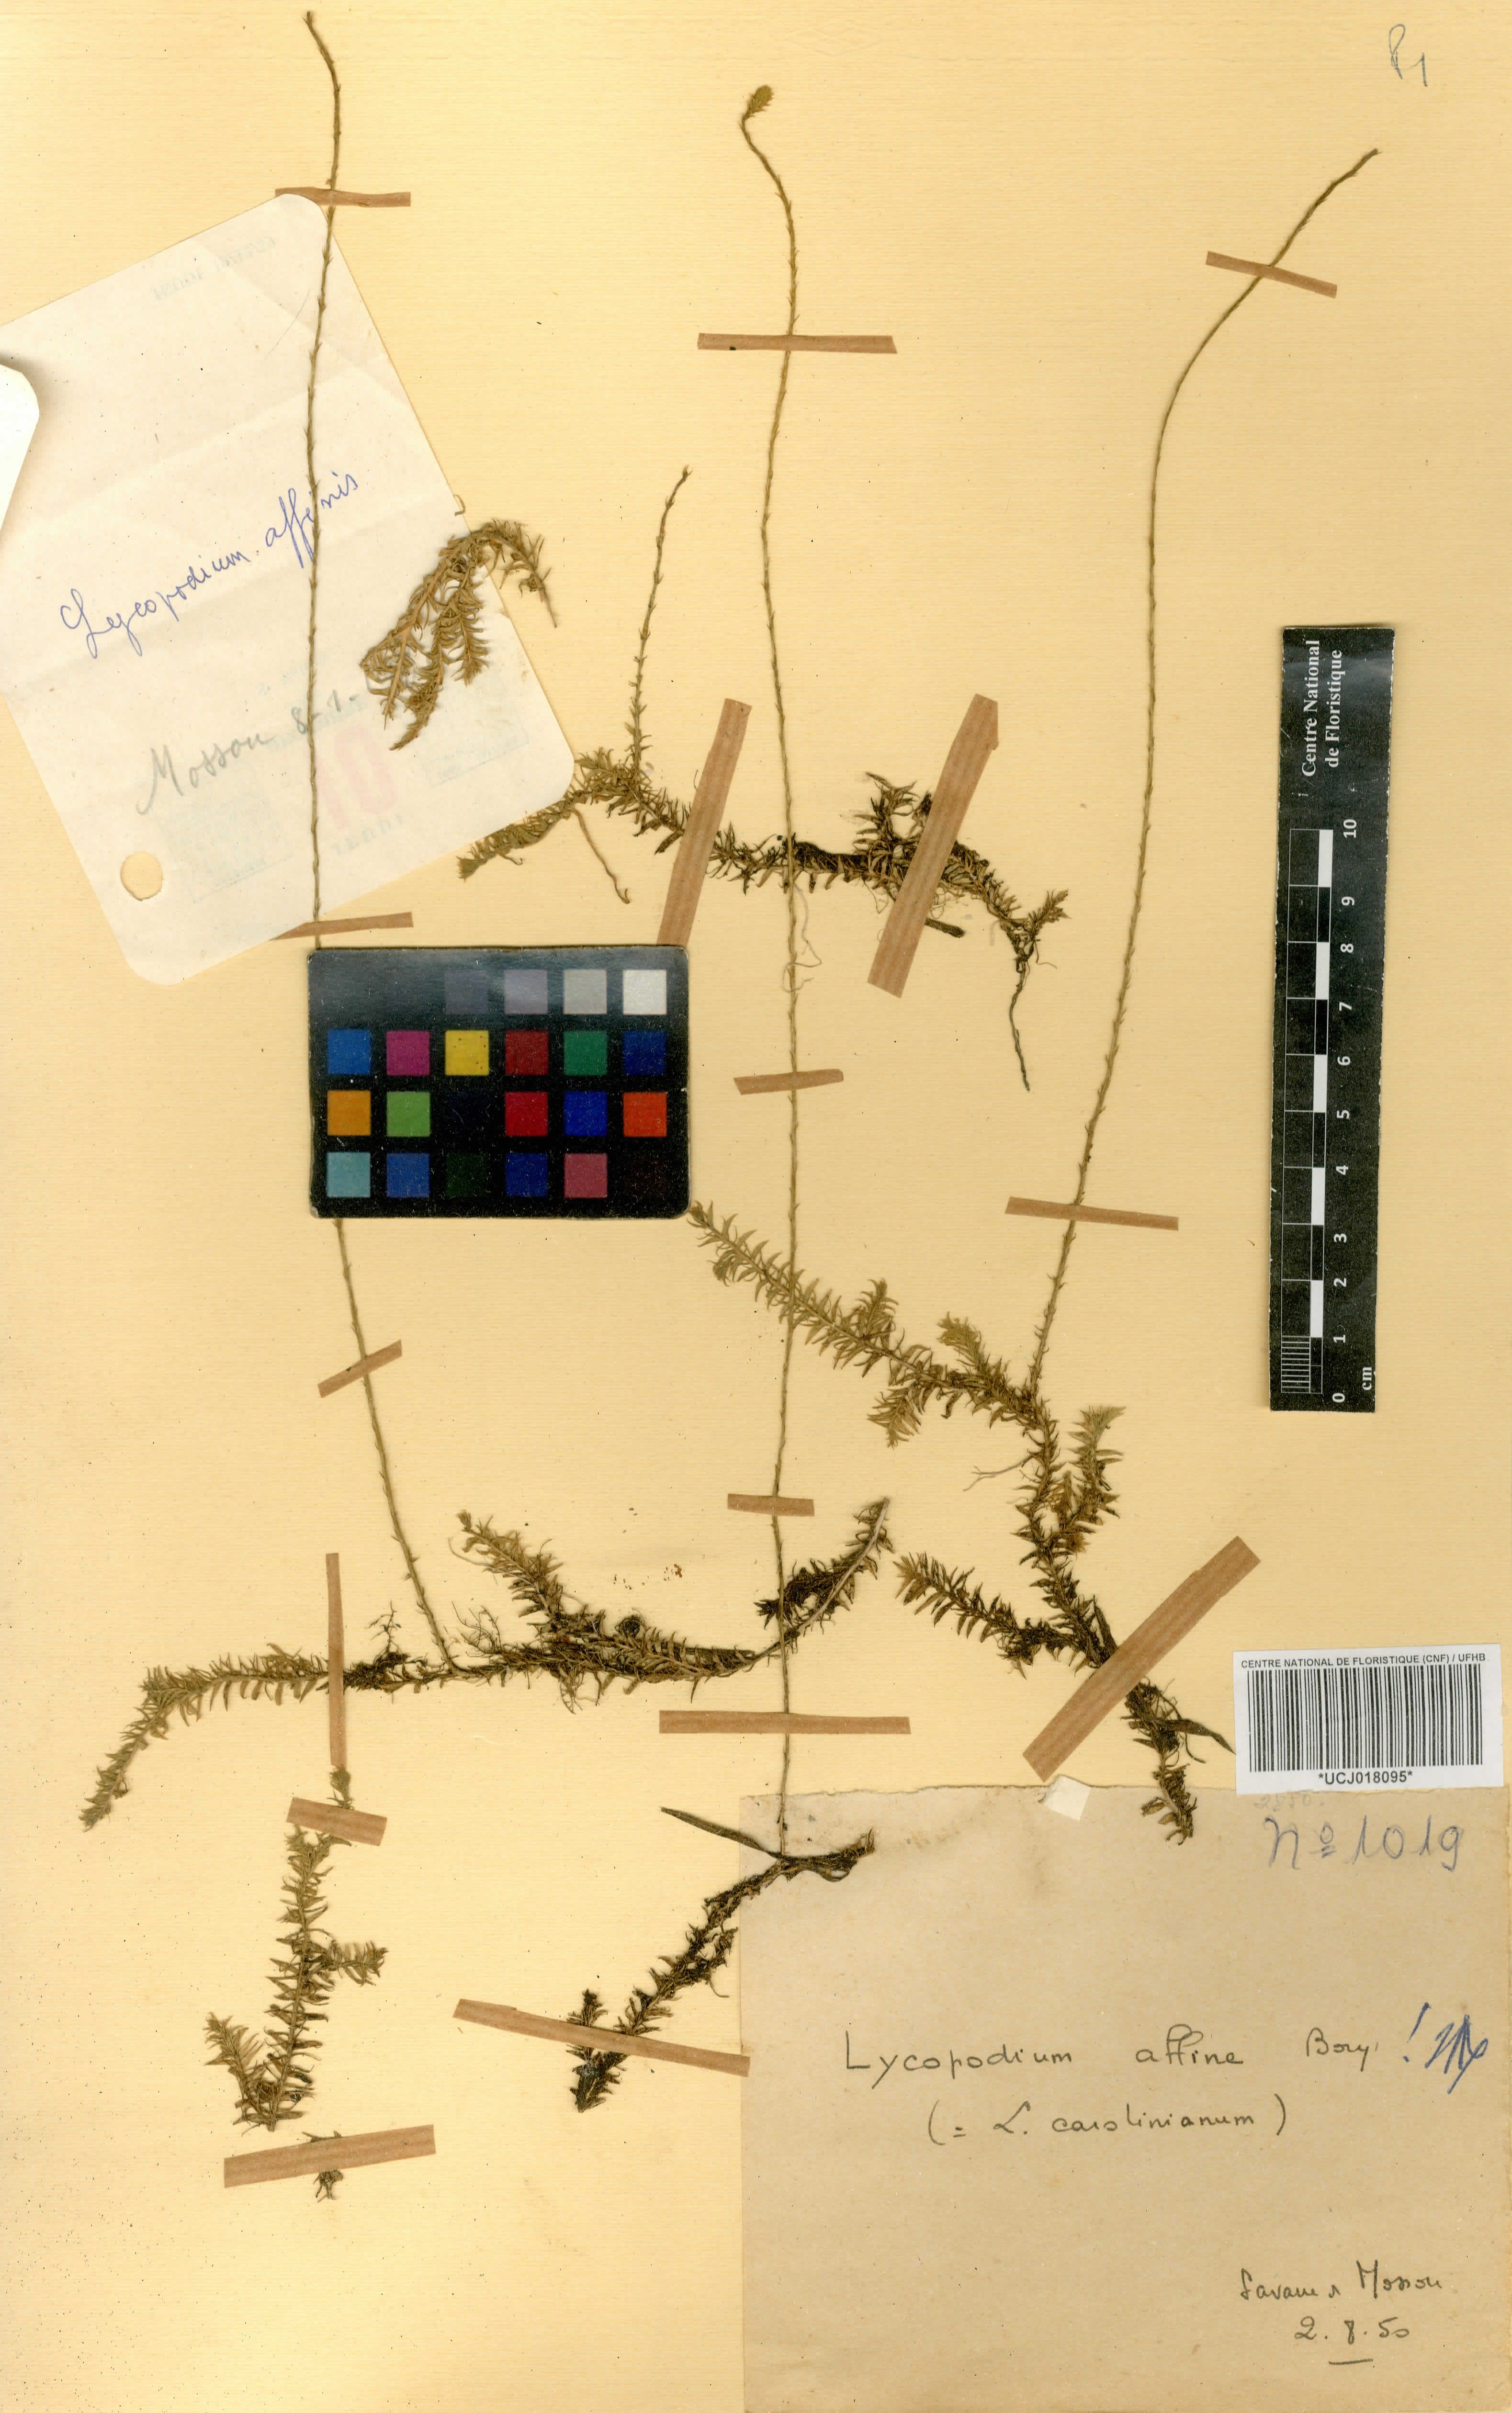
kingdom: Plantae
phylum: Tracheophyta
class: Lycopodiopsida
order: Lycopodiales
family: Lycopodiaceae
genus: Lycopodium
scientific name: Lycopodium
